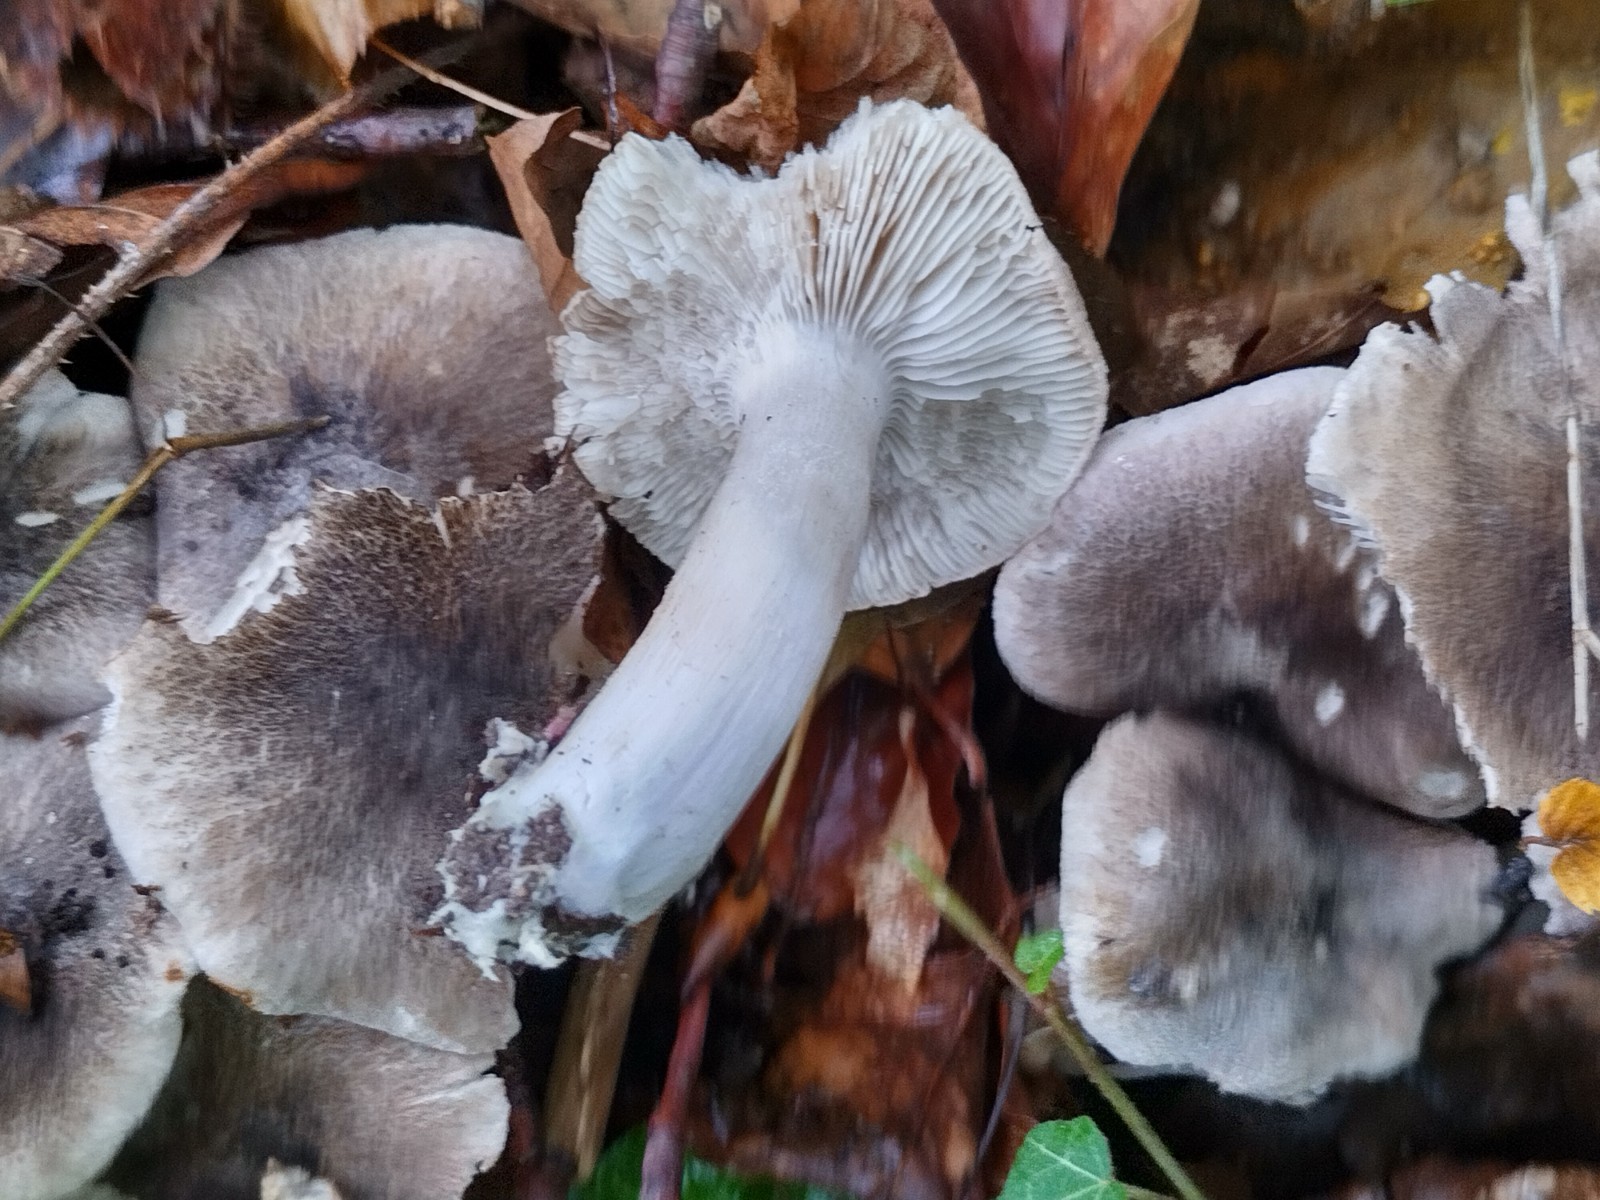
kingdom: Fungi
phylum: Basidiomycota
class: Agaricomycetes
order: Agaricales
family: Tricholomataceae
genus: Tricholoma
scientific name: Tricholoma orirubens
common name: rødbladet ridderhat
